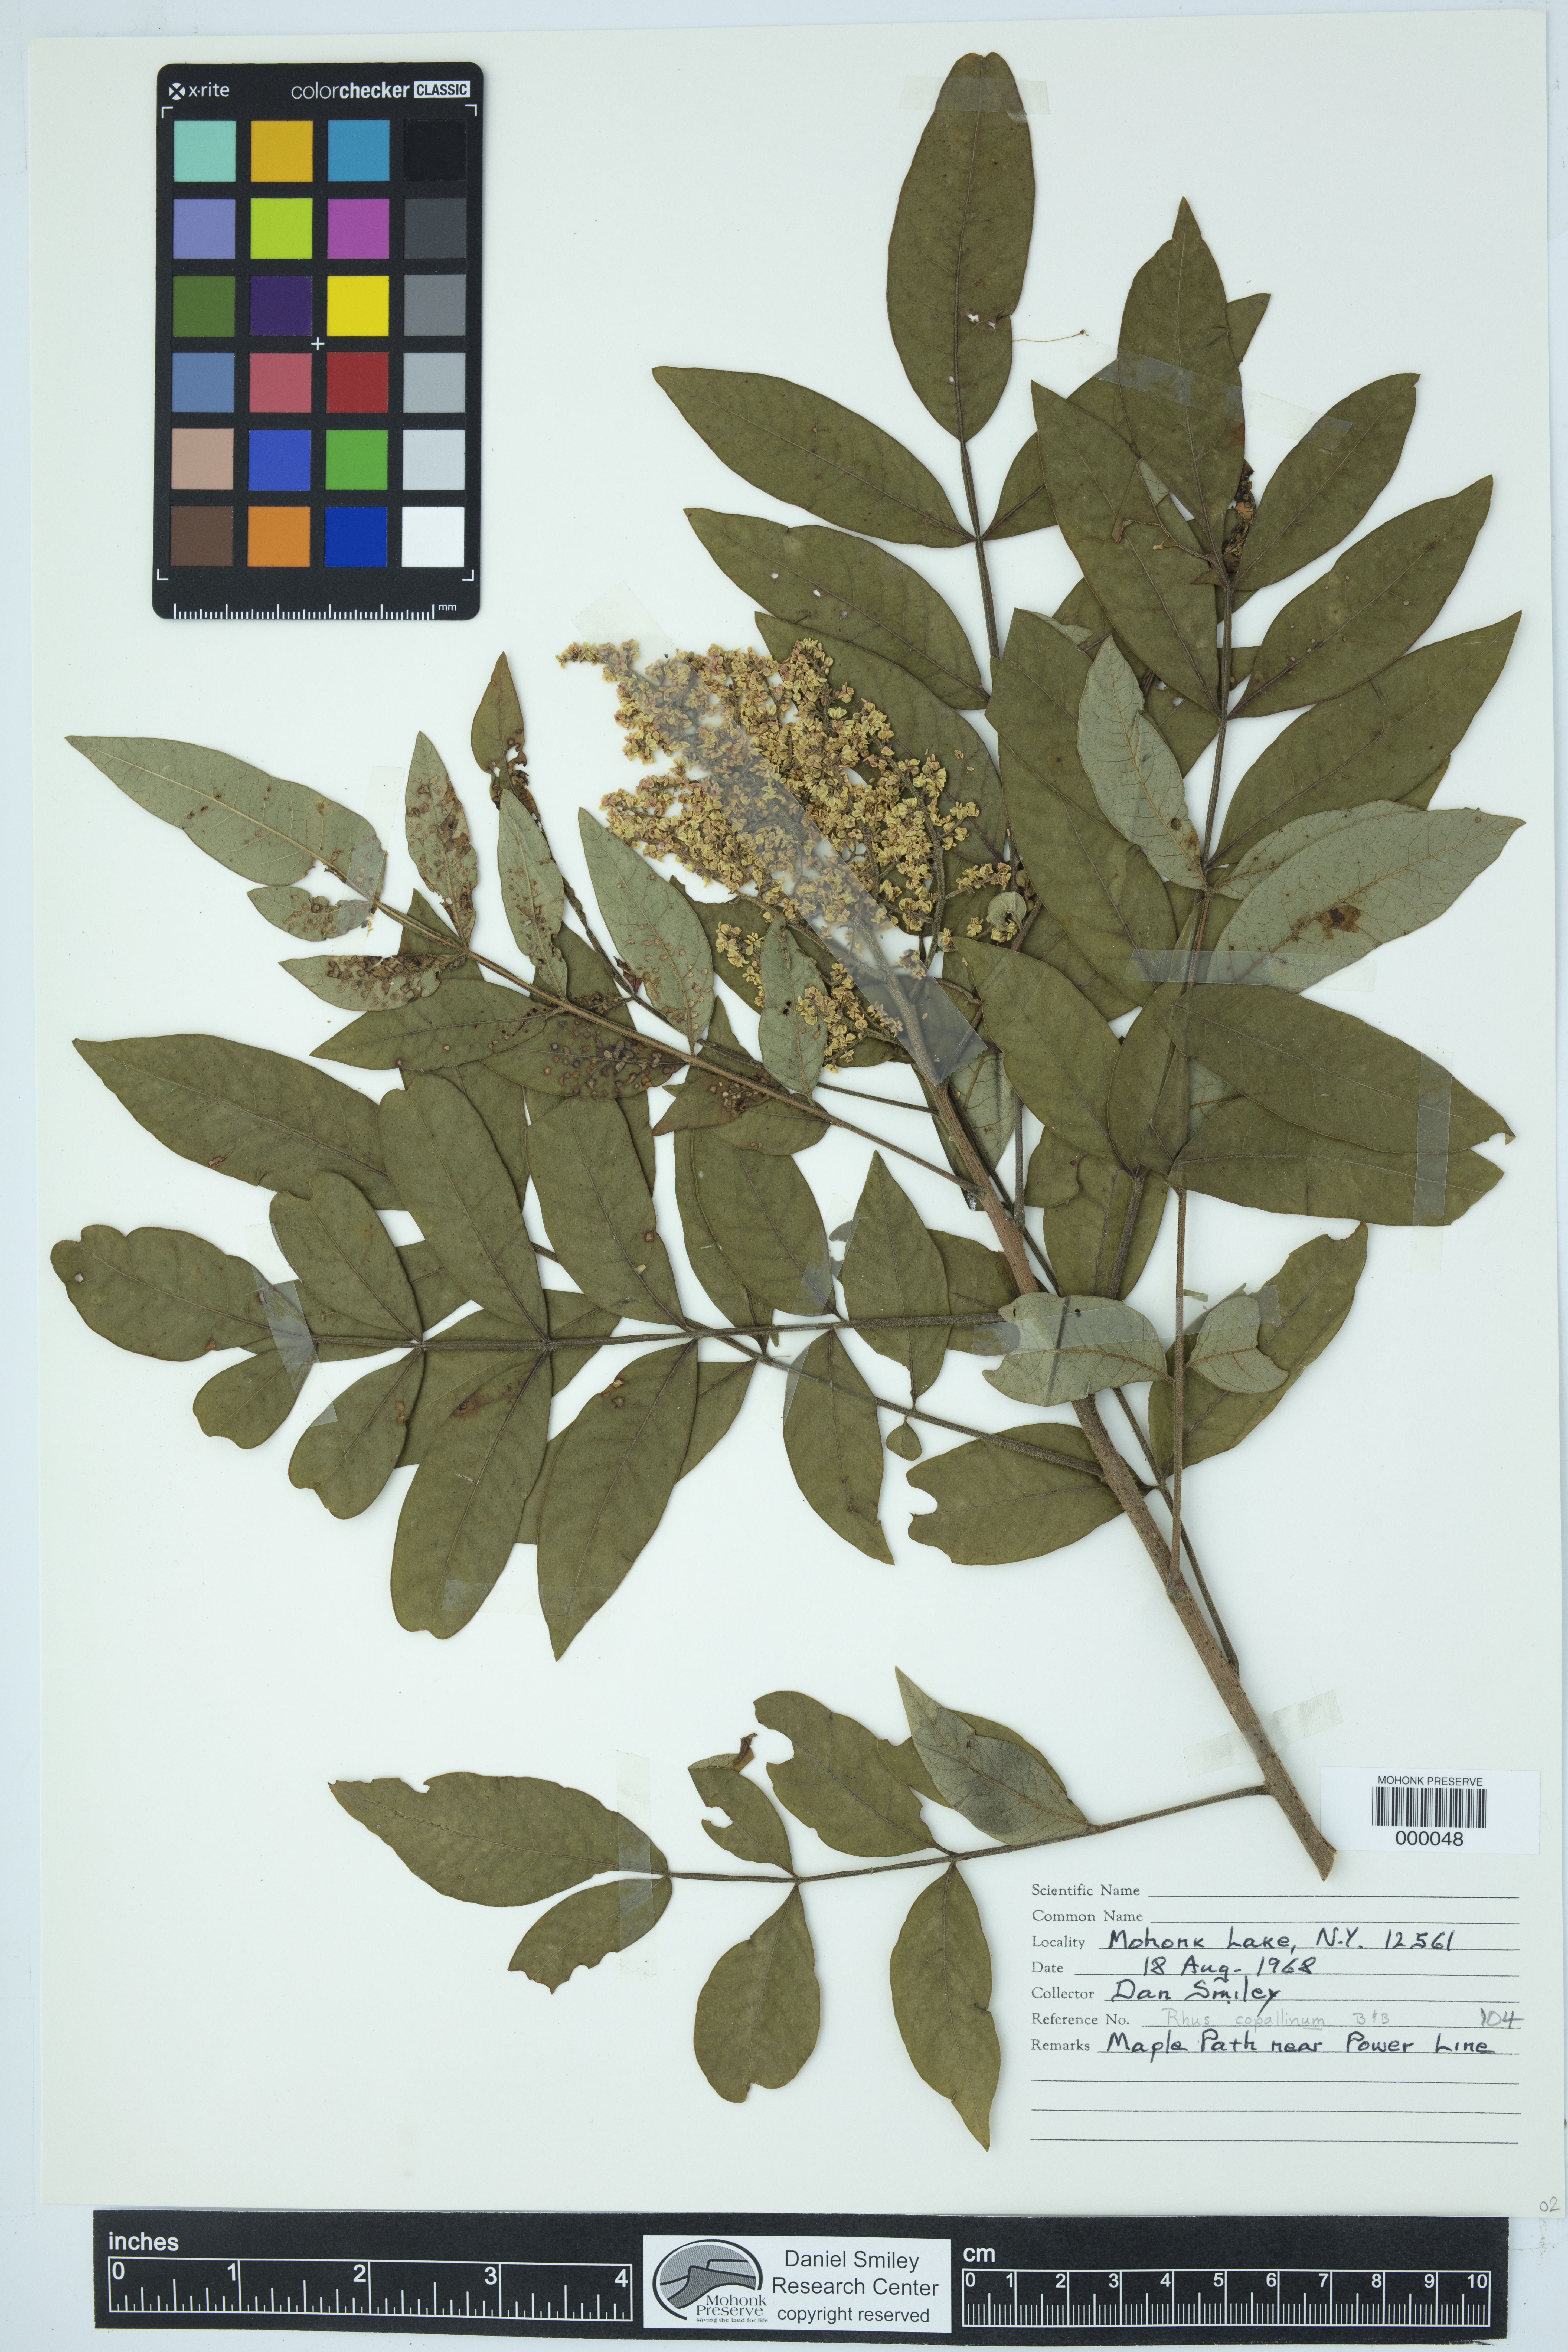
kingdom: Plantae
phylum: Tracheophyta
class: Magnoliopsida
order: Sapindales
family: Anacardiaceae
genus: Rhus
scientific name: Rhus copallina
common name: Shining sumac
